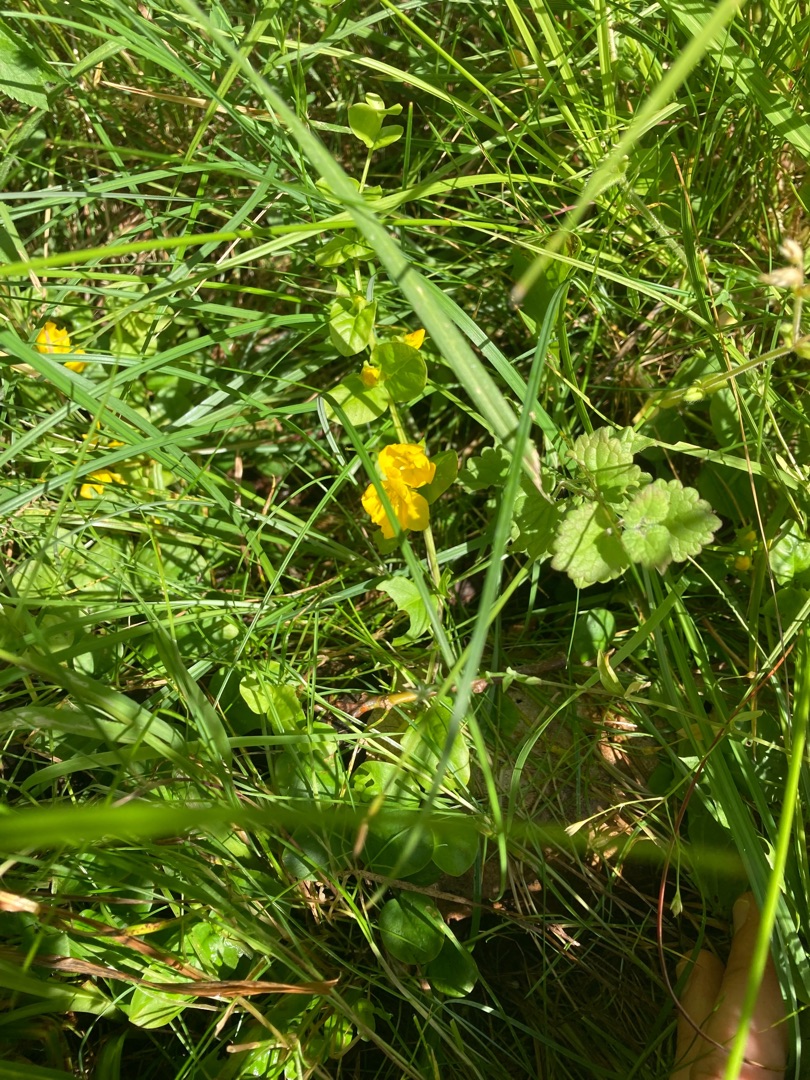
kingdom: Plantae
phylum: Tracheophyta
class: Magnoliopsida
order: Ericales
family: Primulaceae
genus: Lysimachia
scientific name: Lysimachia nummularia
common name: Pengebladet fredløs
